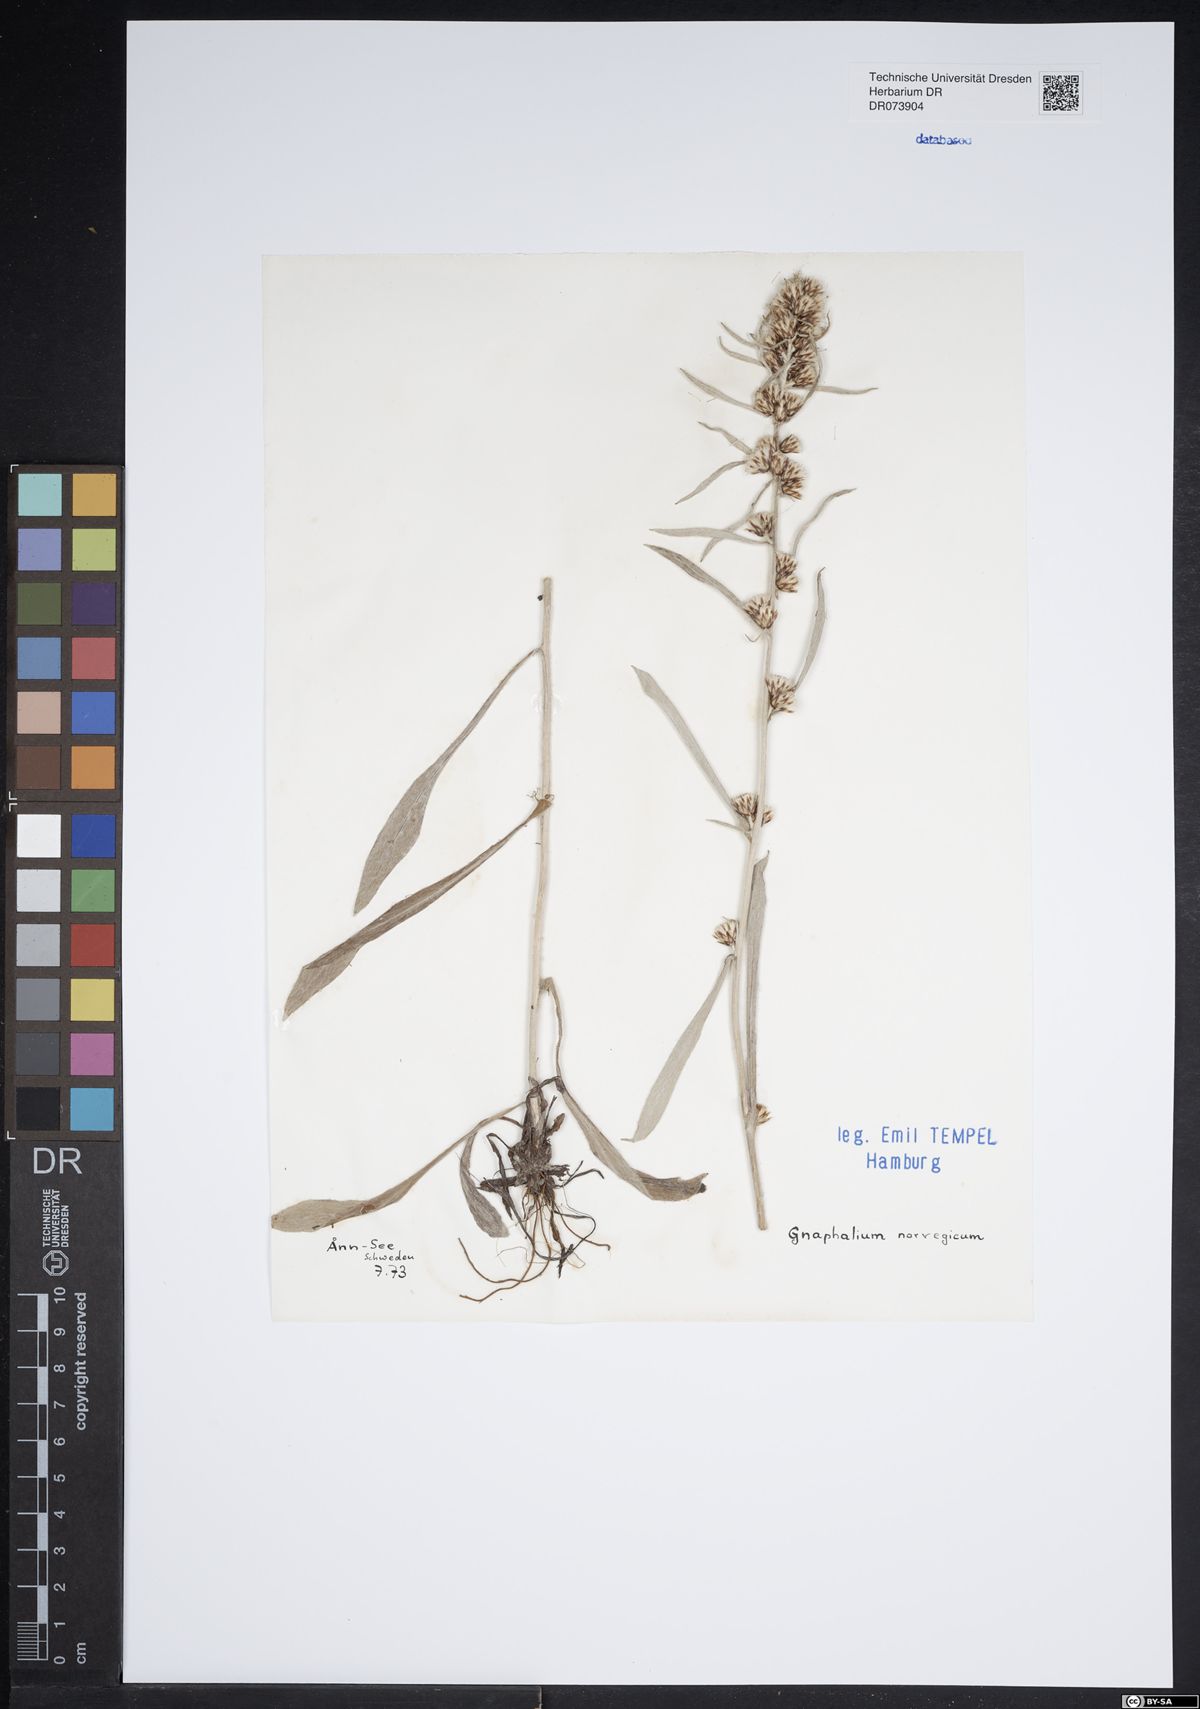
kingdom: Plantae
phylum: Tracheophyta
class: Magnoliopsida
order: Asterales
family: Asteraceae
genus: Omalotheca
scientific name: Omalotheca norvegica
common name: Norwegian arctic-cudweed
